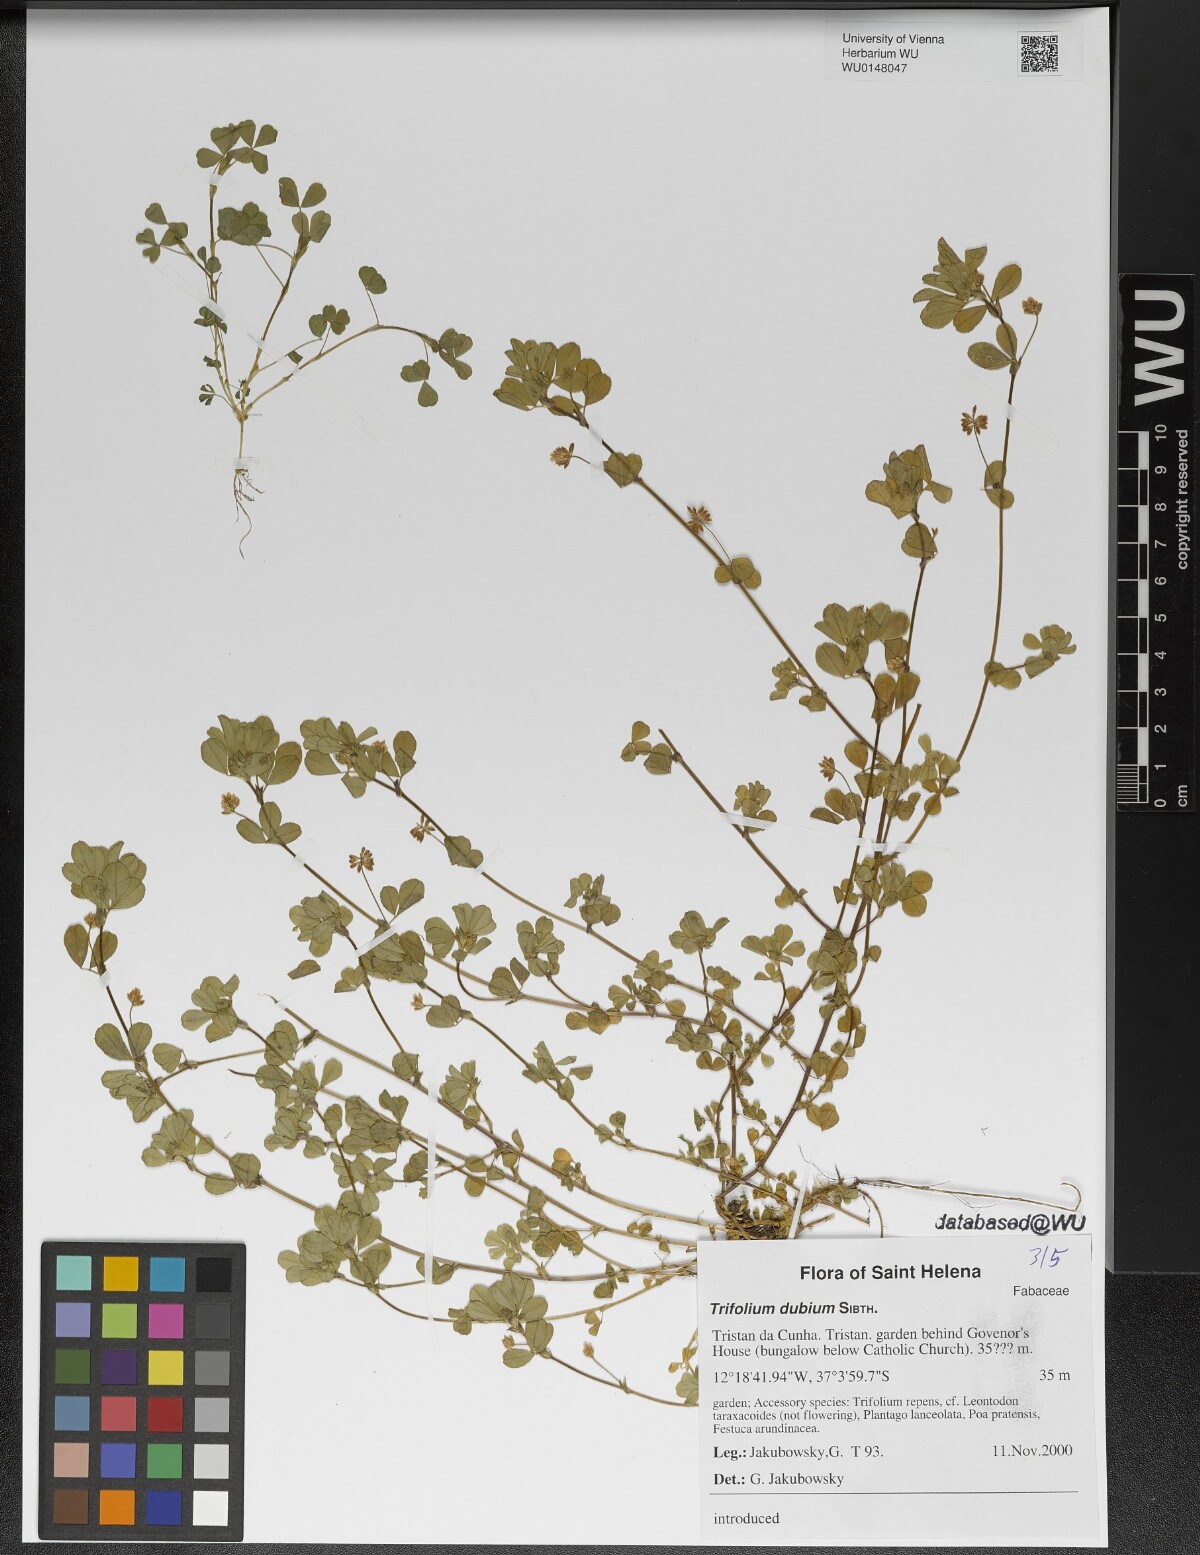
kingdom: Plantae
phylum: Tracheophyta
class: Magnoliopsida
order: Fabales
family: Fabaceae
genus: Trifolium
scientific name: Trifolium dubium
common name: Suckling clover
